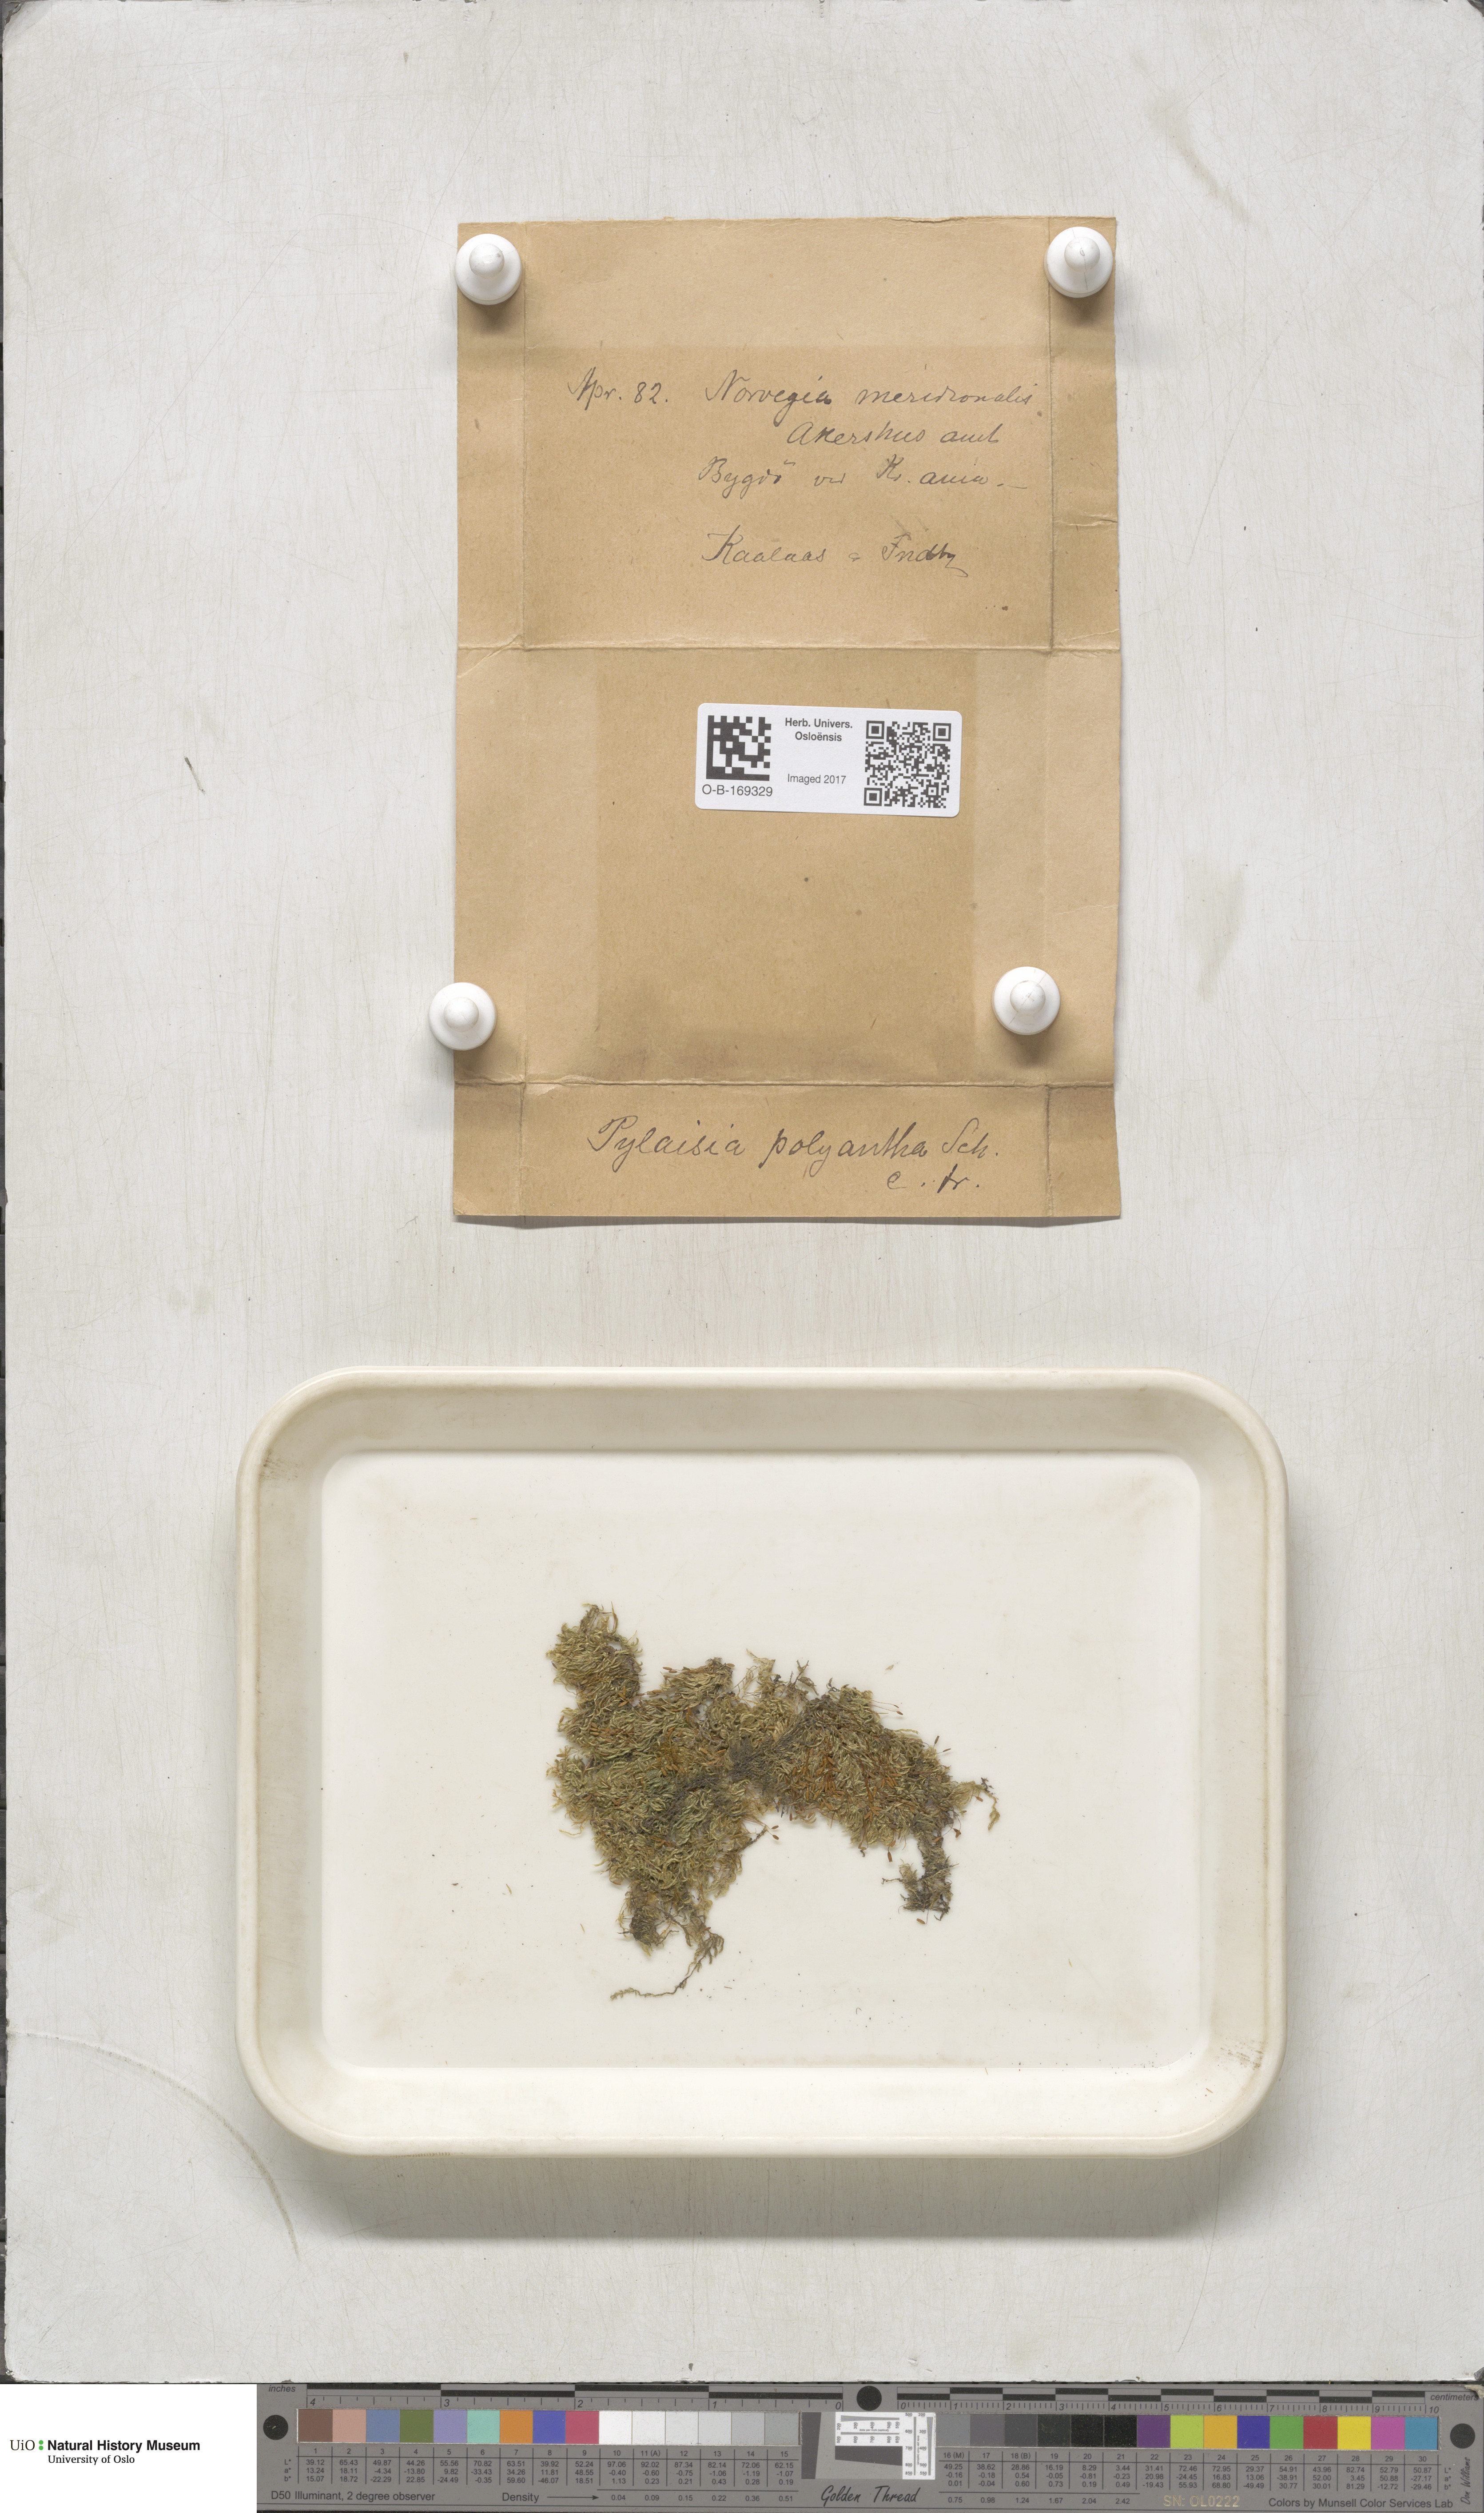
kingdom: Plantae
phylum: Bryophyta
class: Bryopsida
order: Hypnales
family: Pylaisiaceae
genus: Pylaisia
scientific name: Pylaisia polyantha
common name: Many-flowered leskea
